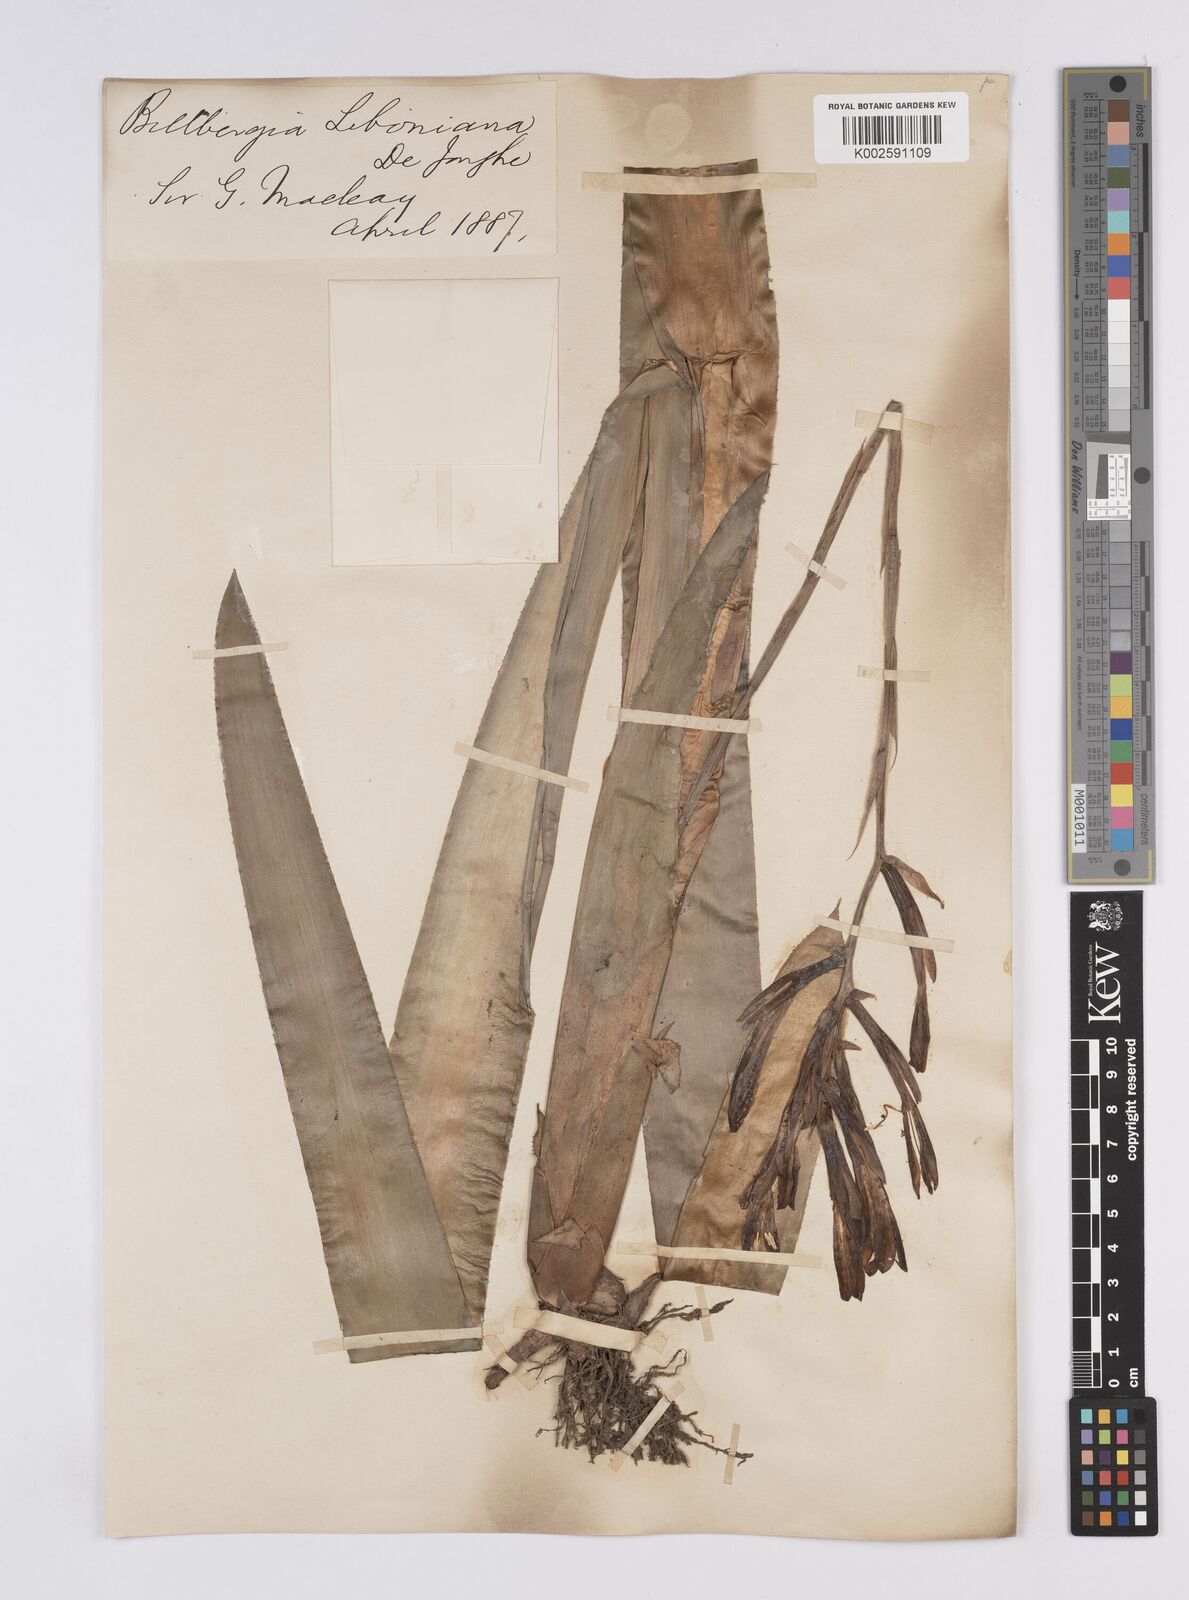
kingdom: Plantae
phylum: Tracheophyta
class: Liliopsida
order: Poales
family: Bromeliaceae
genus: Quesnelia
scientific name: Quesnelia liboniana
